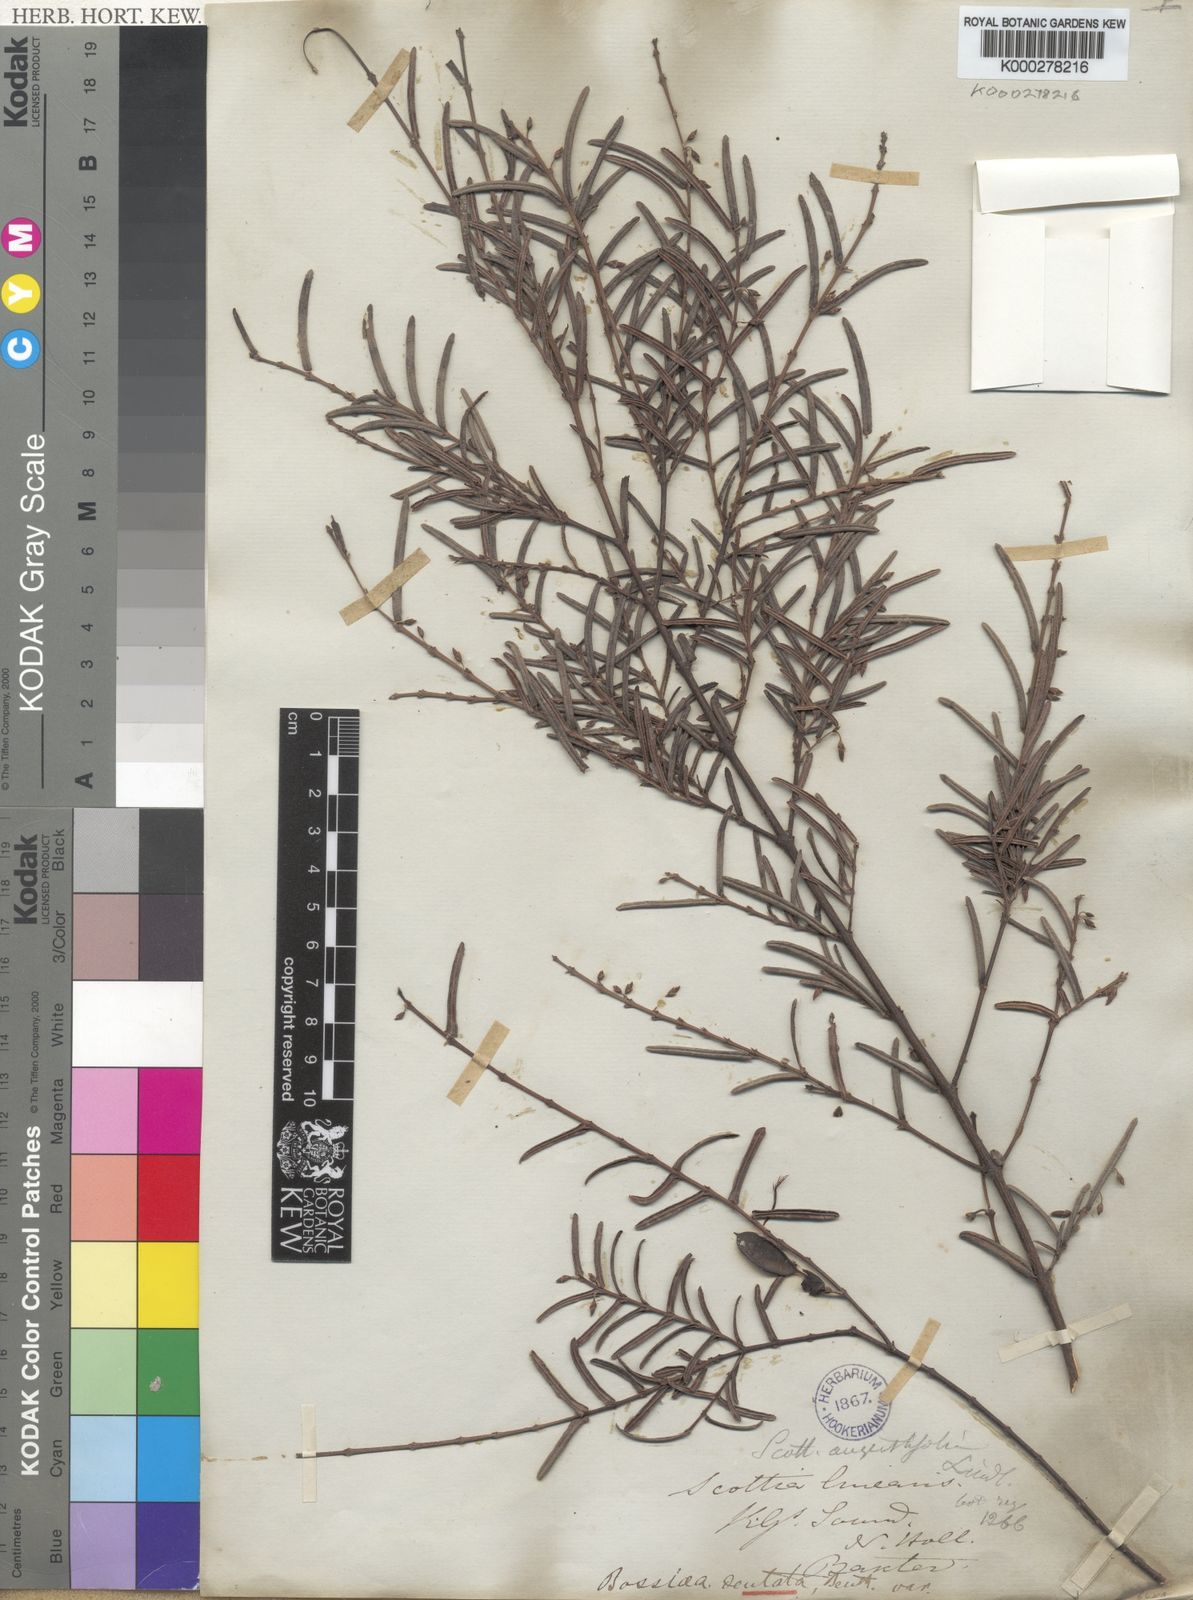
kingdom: Plantae
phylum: Tracheophyta
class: Magnoliopsida
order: Fabales
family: Fabaceae
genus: Bossiaea
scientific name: Bossiaea dentata
